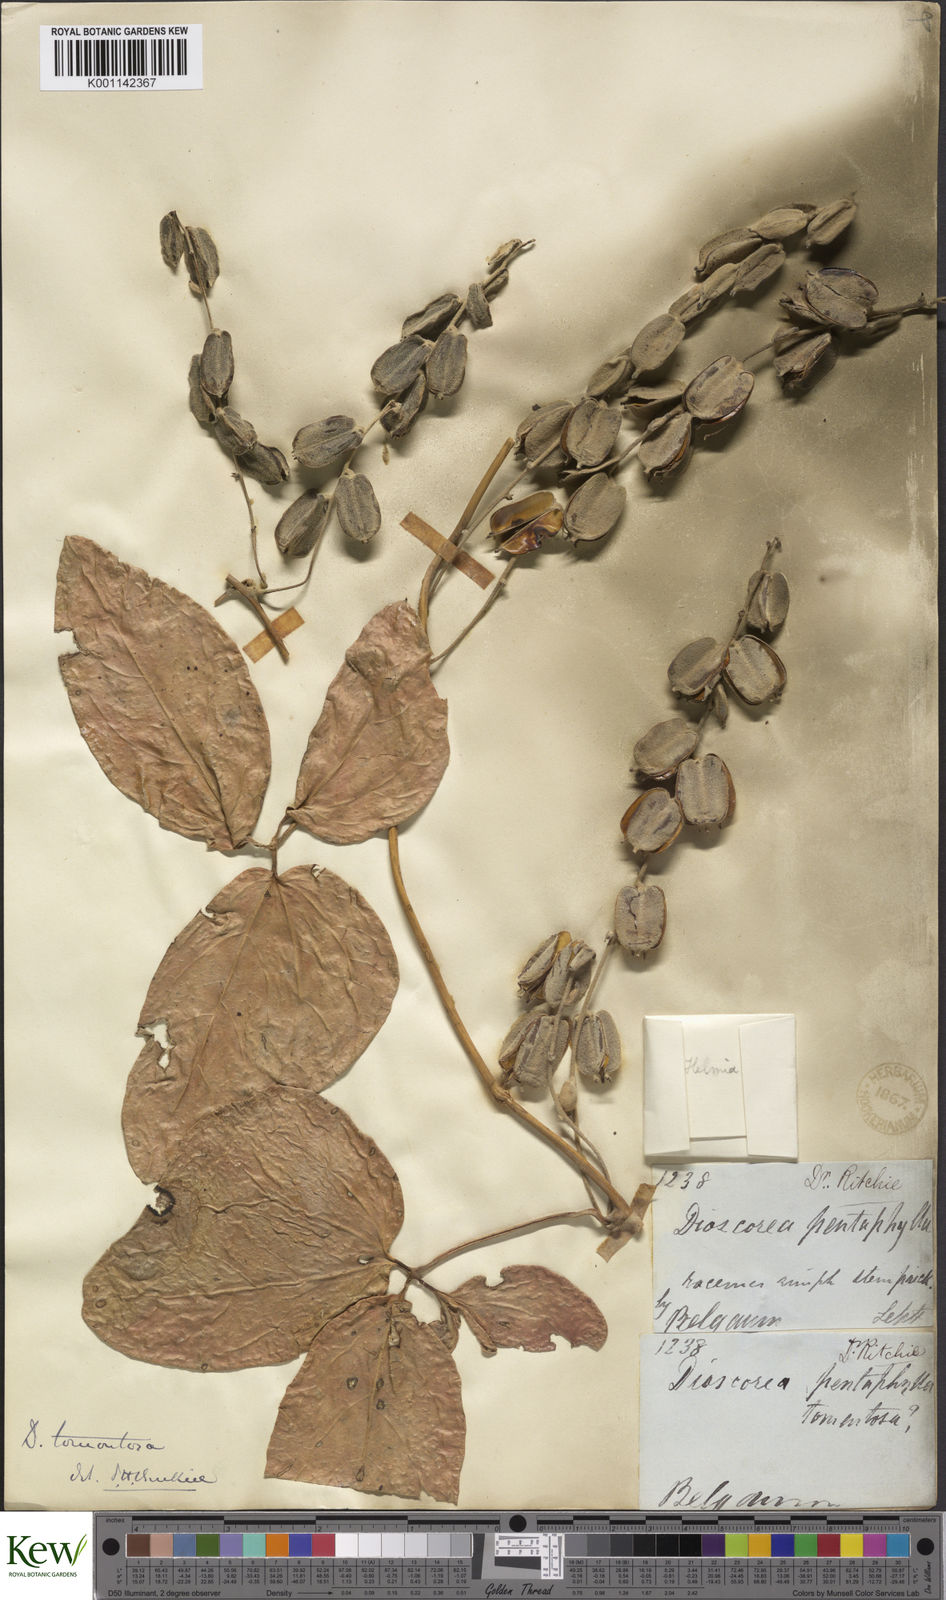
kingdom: Plantae
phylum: Tracheophyta
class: Liliopsida
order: Dioscoreales
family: Dioscoreaceae
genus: Dioscorea
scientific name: Dioscorea
